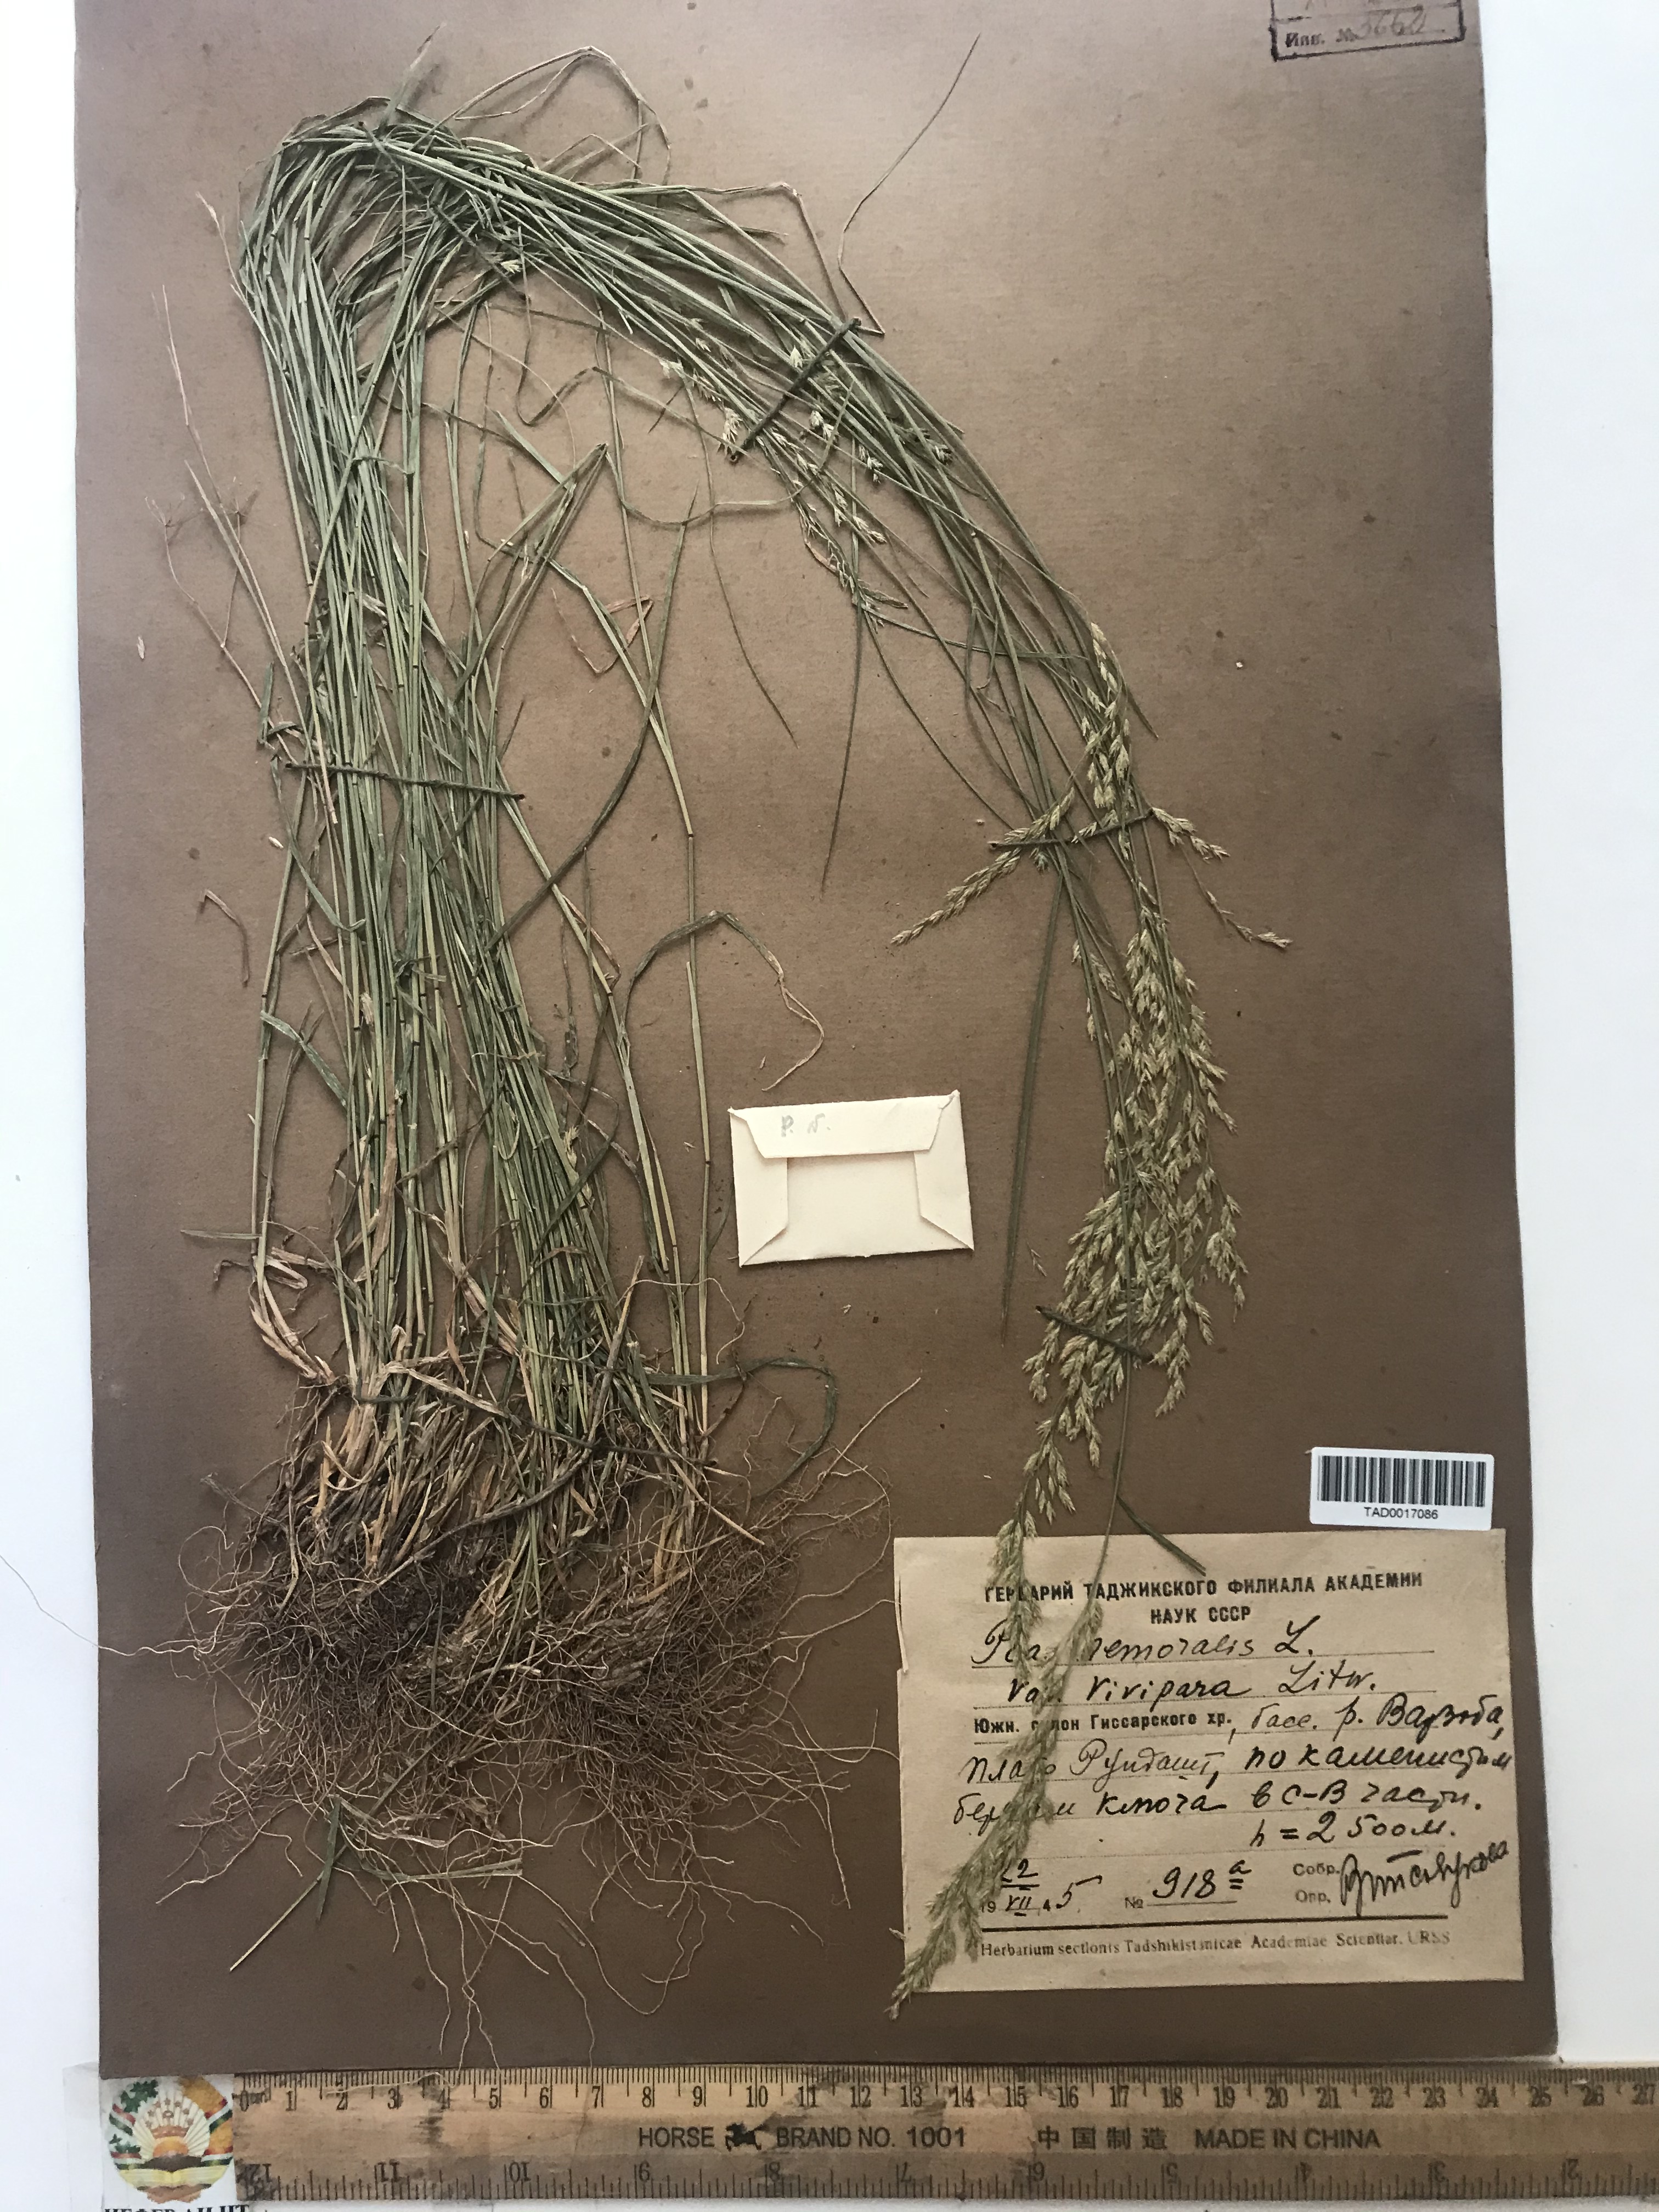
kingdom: Plantae
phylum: Tracheophyta
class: Liliopsida
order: Poales
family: Poaceae
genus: Poa
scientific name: Poa nemoralis
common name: Wood bluegrass
